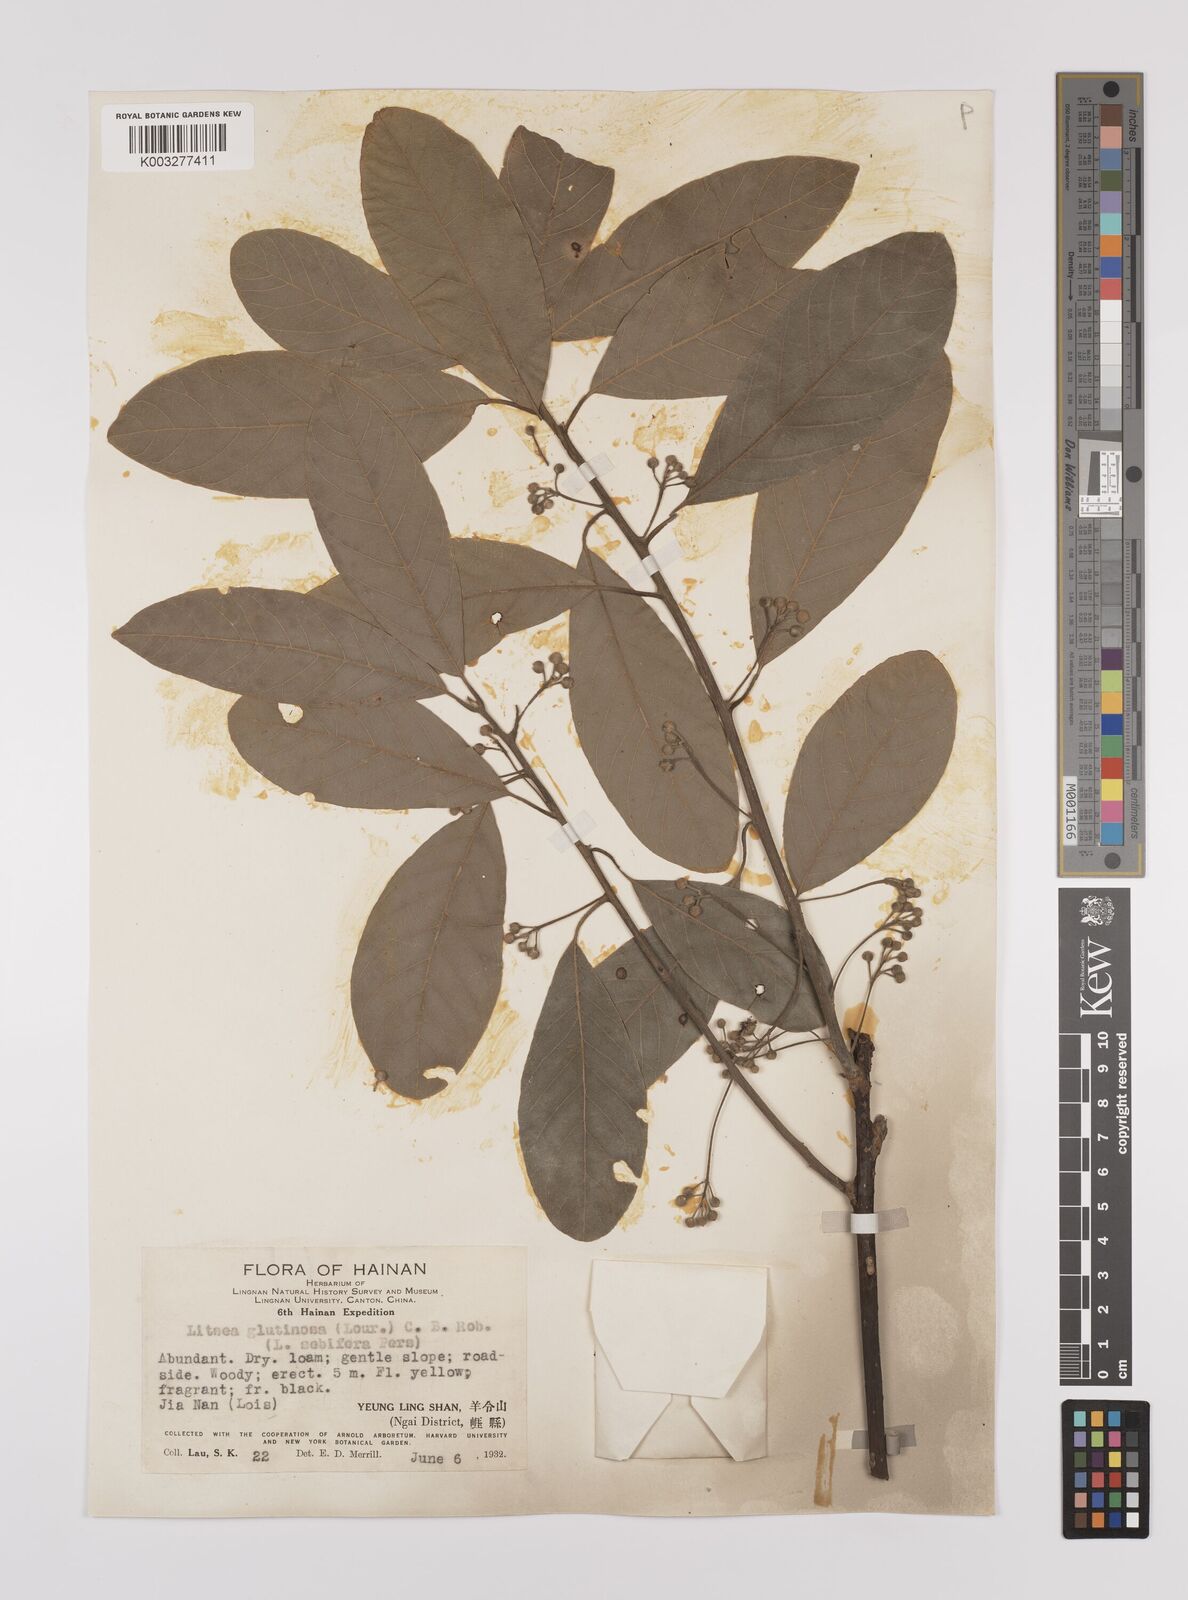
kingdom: Plantae
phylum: Tracheophyta
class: Magnoliopsida
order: Laurales
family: Lauraceae
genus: Litsea
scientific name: Litsea glutinosa
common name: Indian-laurel
